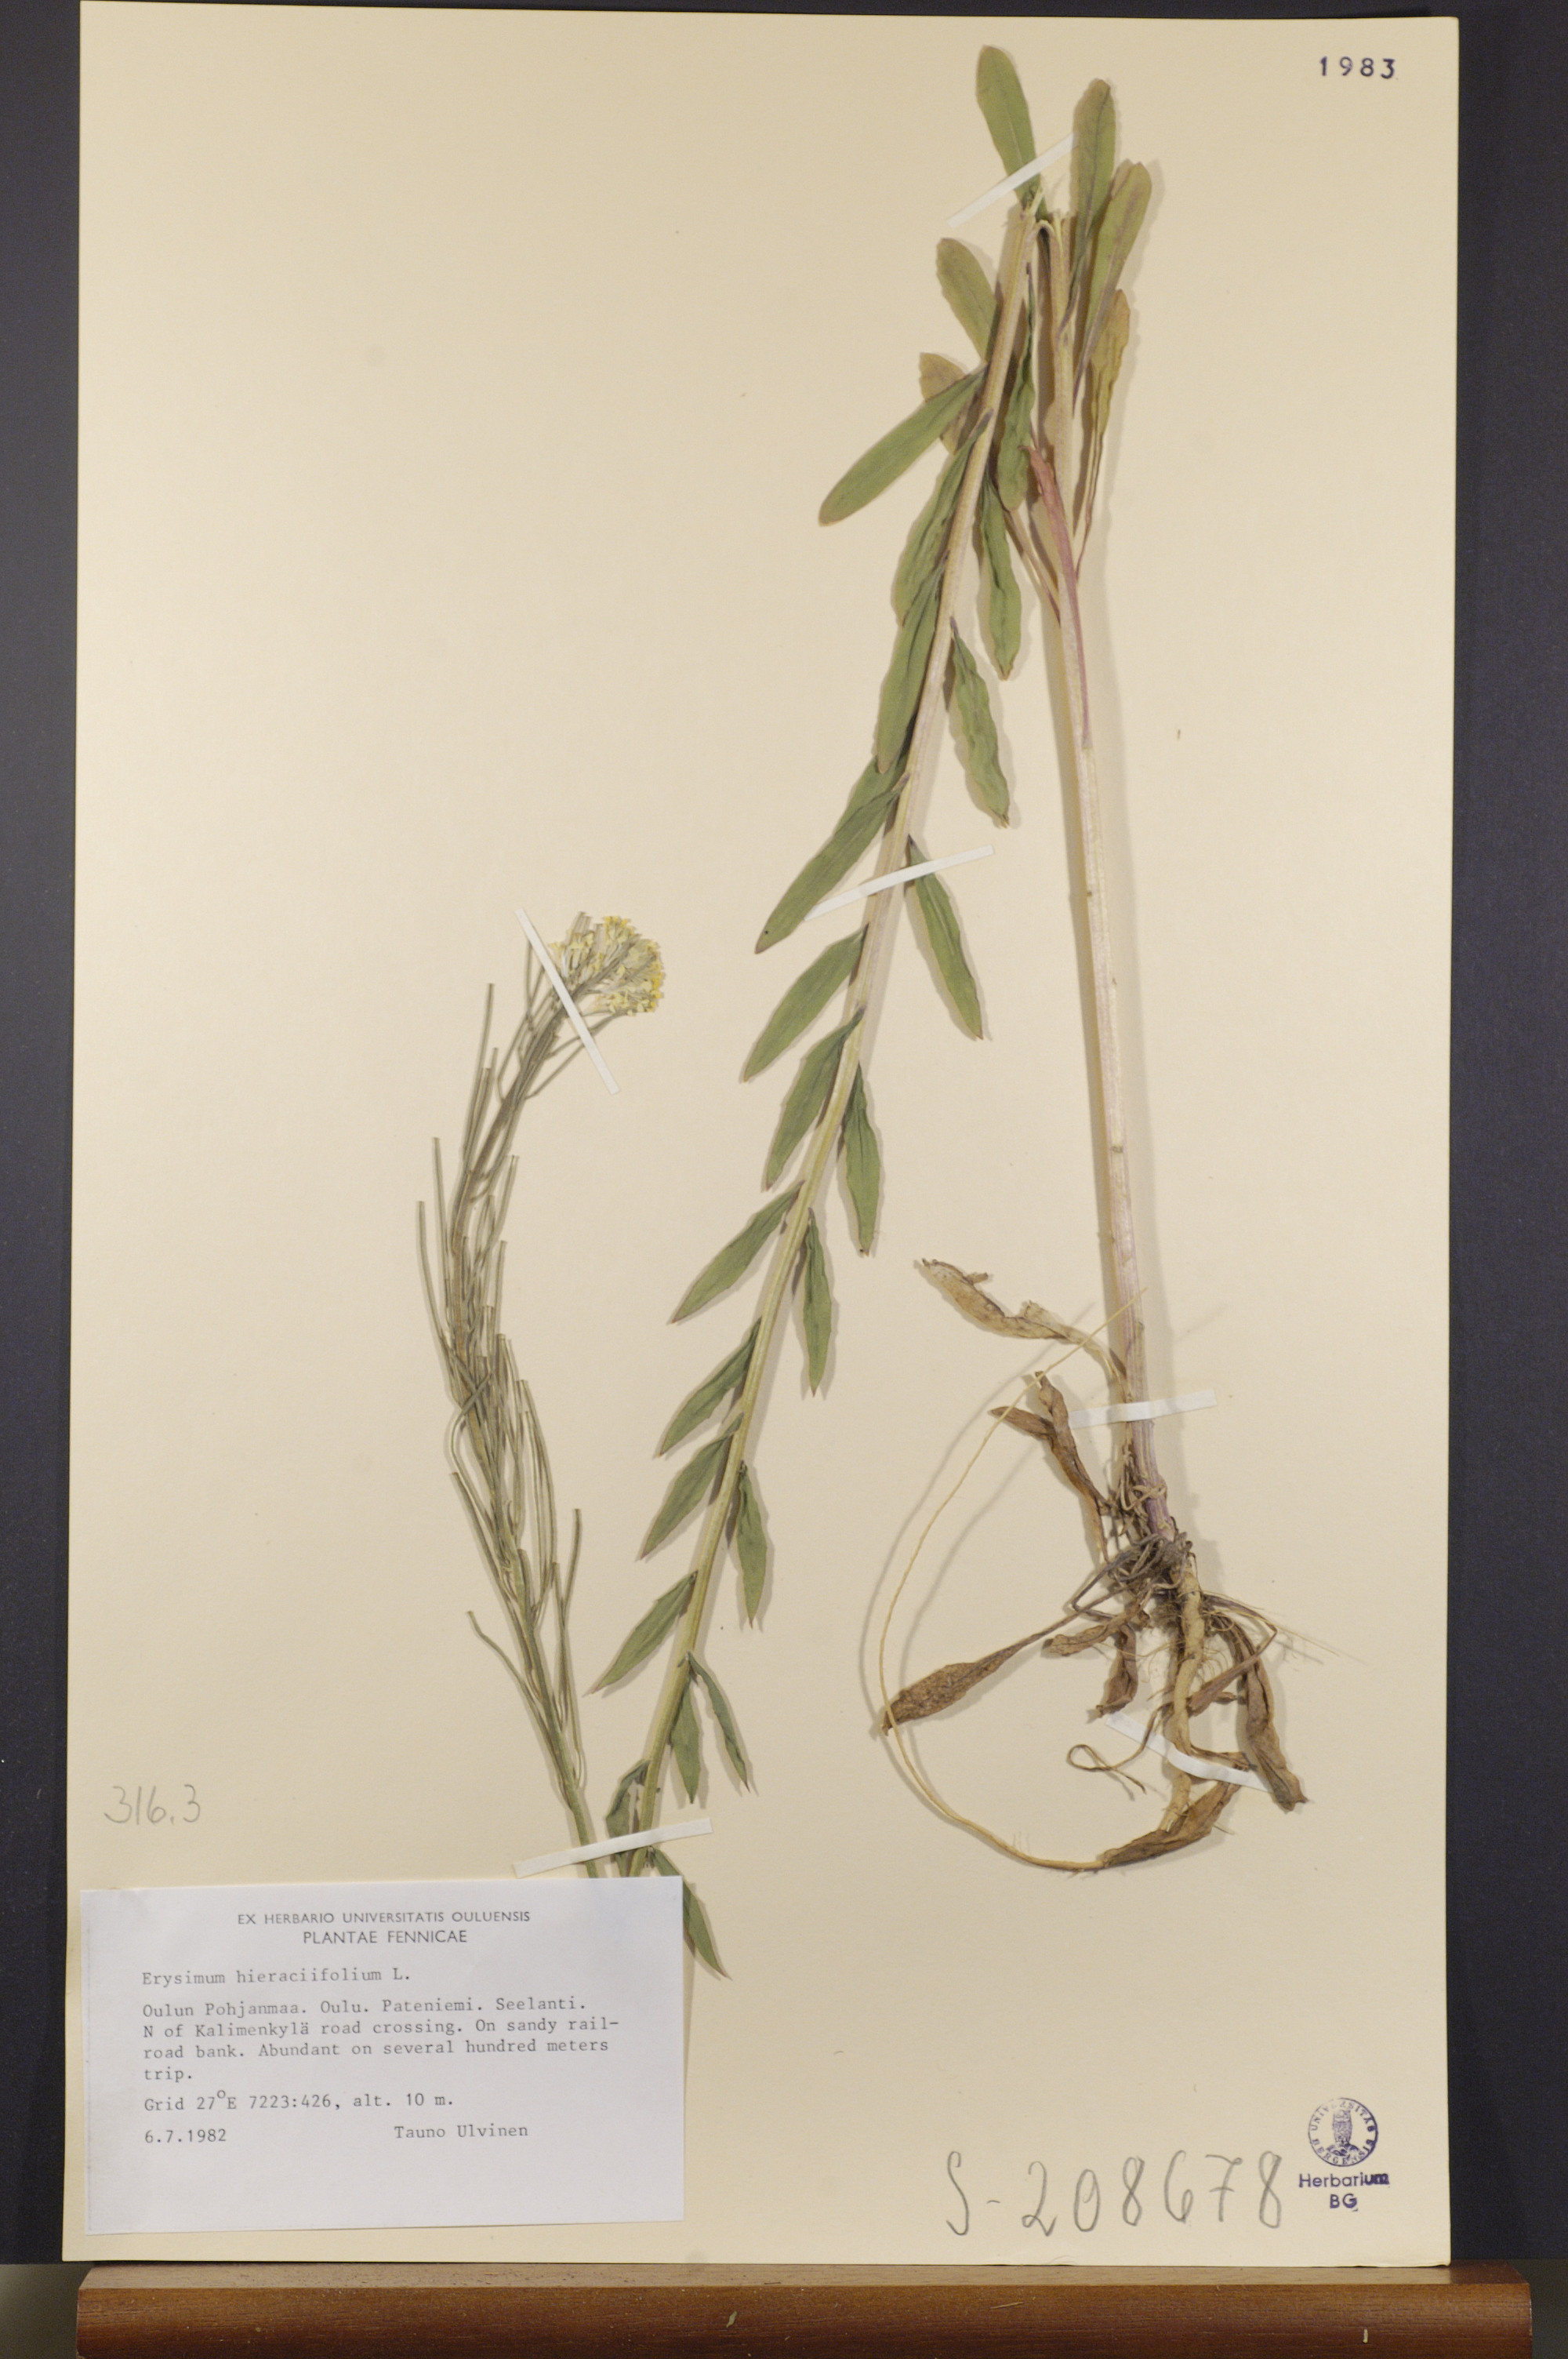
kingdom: Plantae
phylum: Tracheophyta
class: Magnoliopsida
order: Brassicales
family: Brassicaceae
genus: Erysimum
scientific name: Erysimum hieraciifolium
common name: European wallflower
